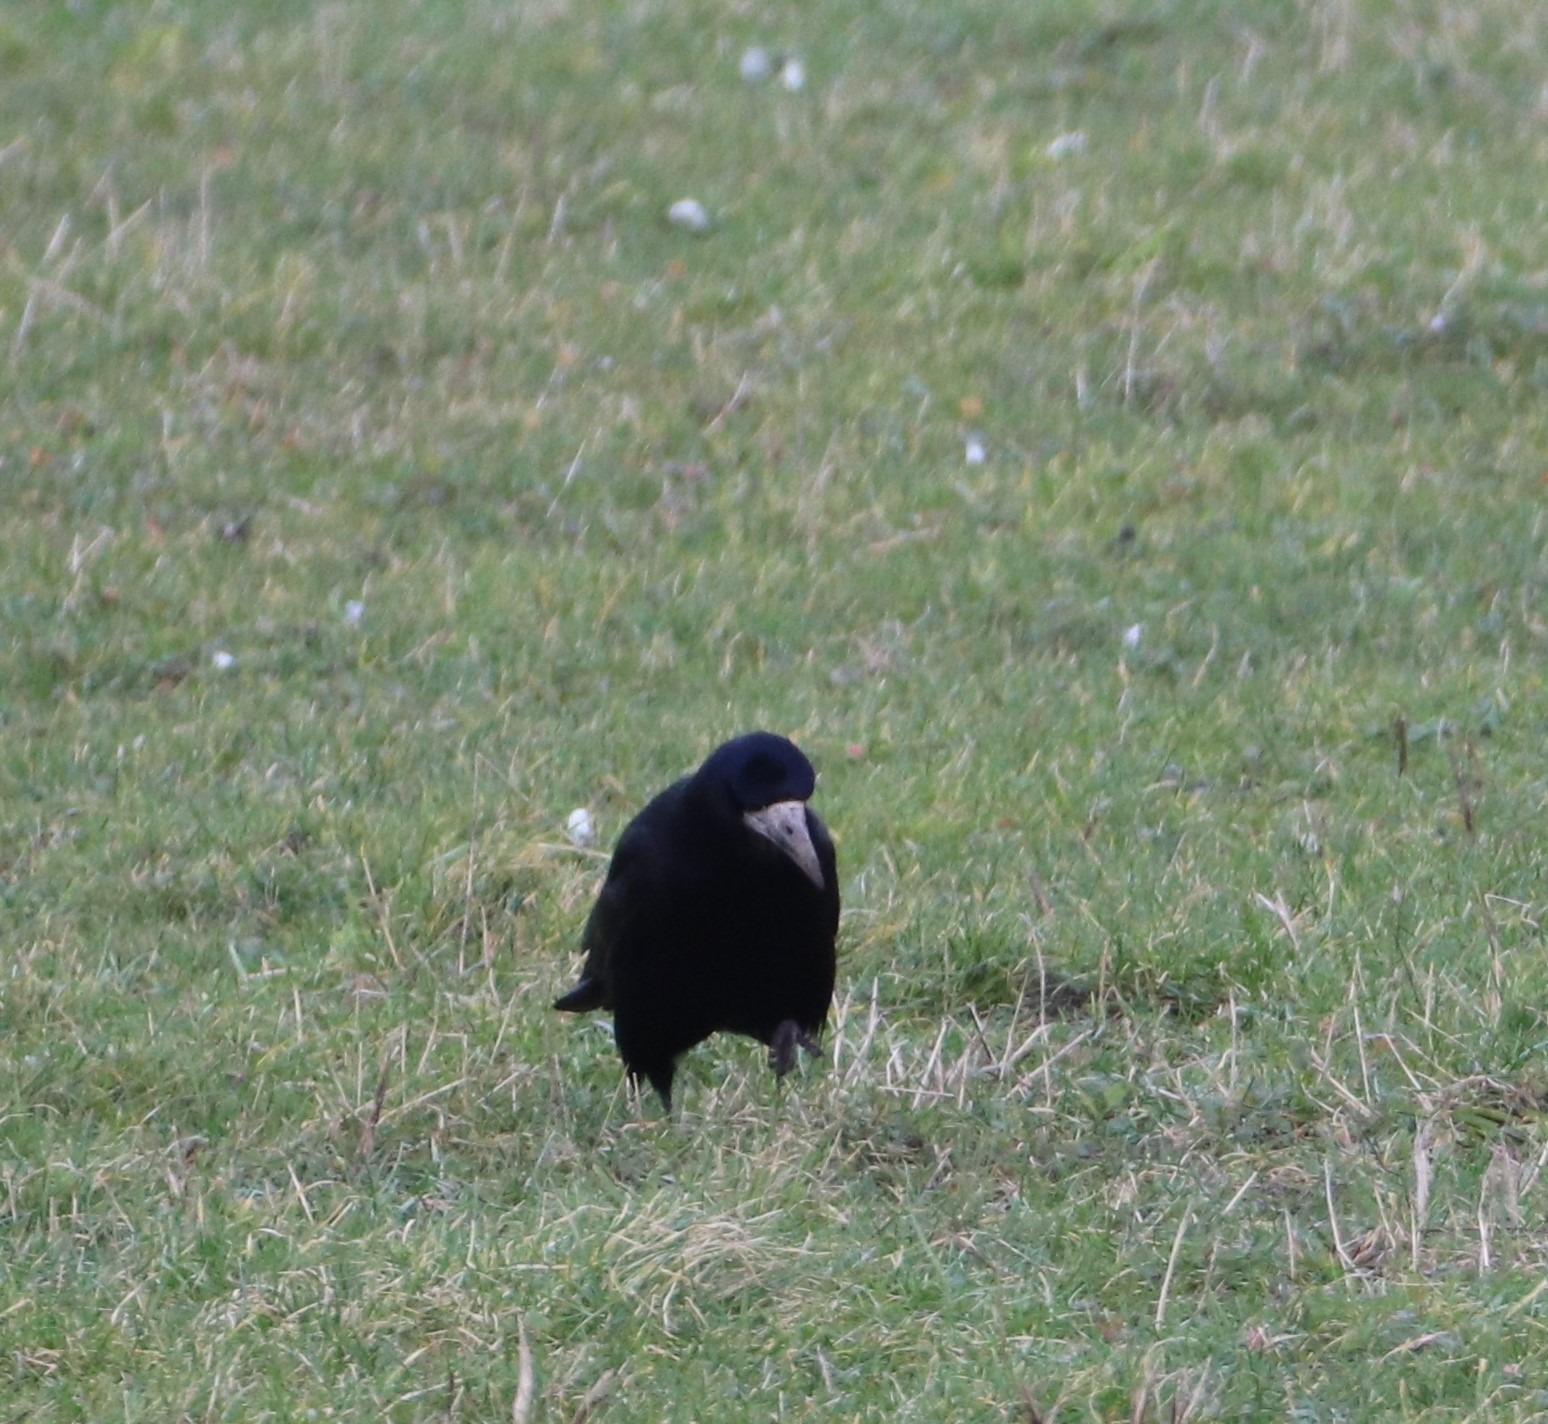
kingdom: Animalia
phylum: Chordata
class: Aves
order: Passeriformes
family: Corvidae
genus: Corvus
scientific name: Corvus frugilegus
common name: Råge
